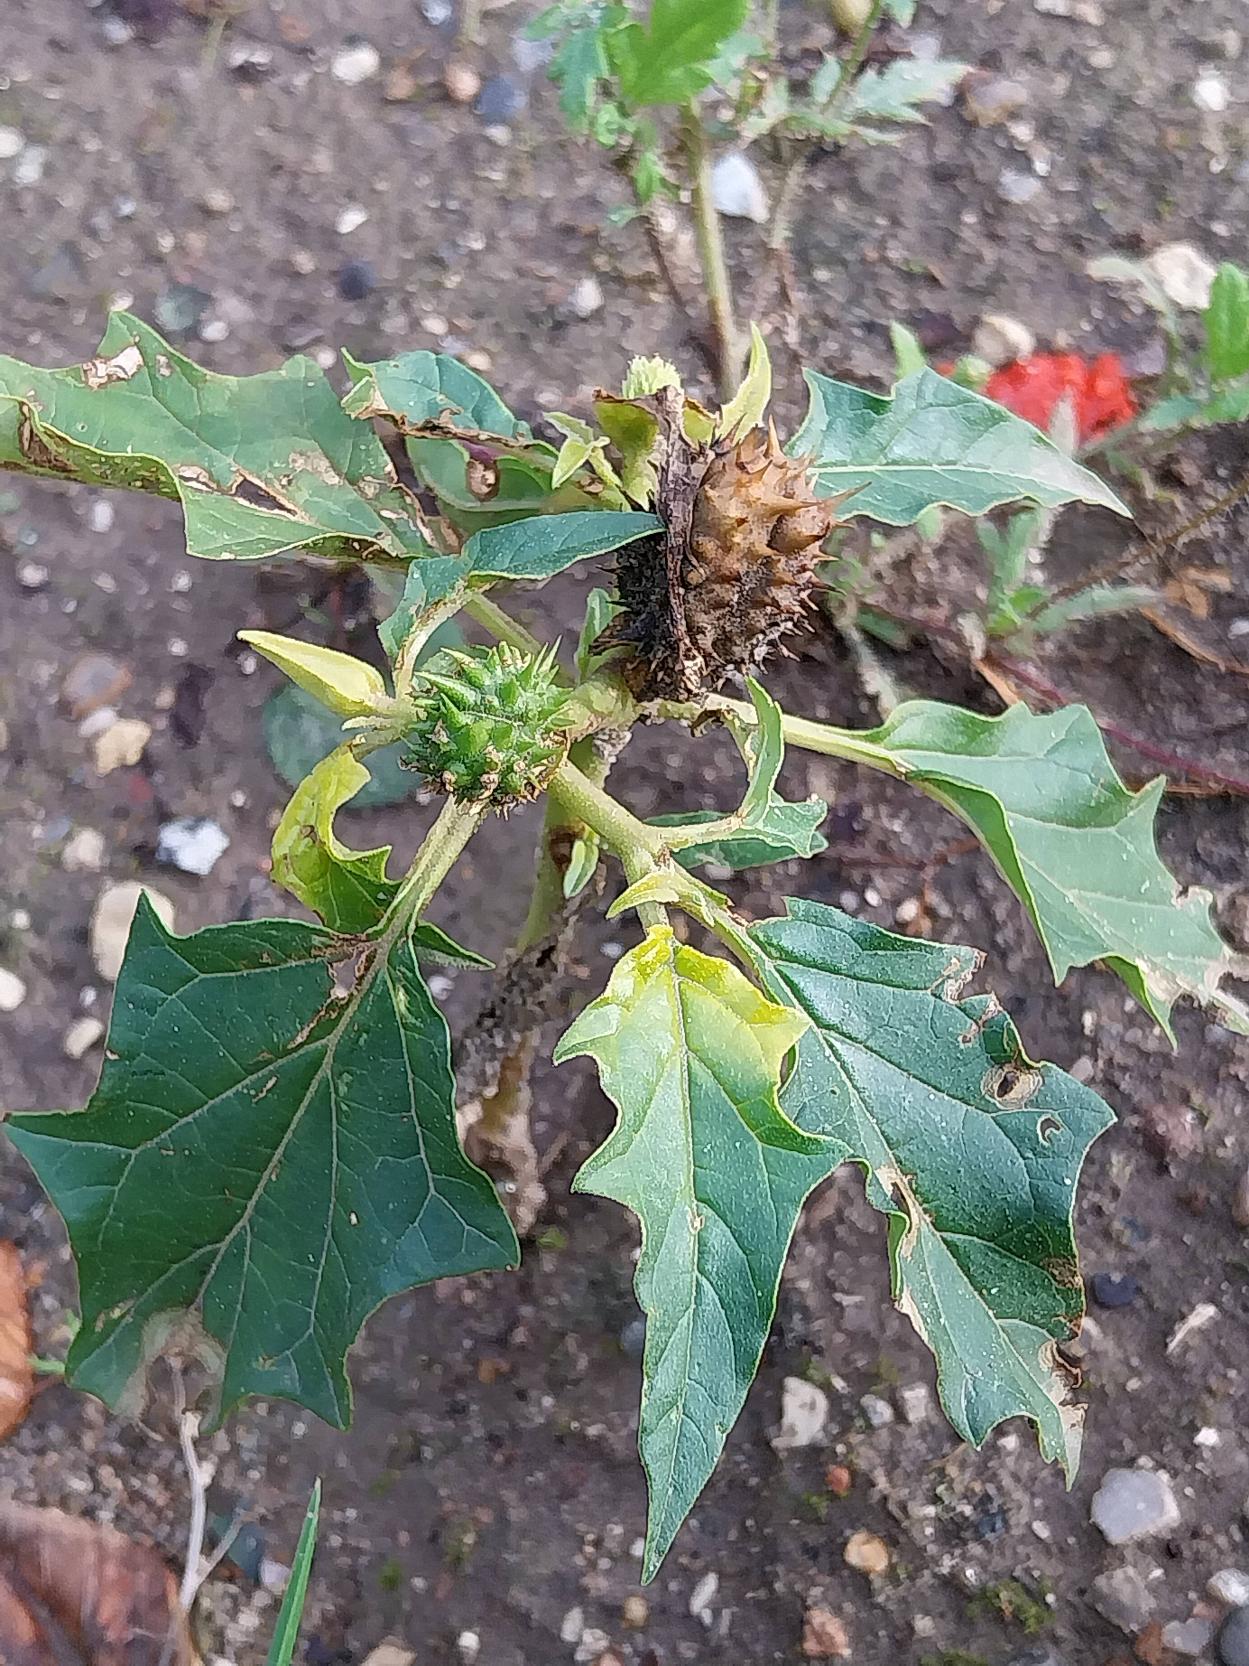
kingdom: Plantae
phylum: Tracheophyta
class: Magnoliopsida
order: Solanales
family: Solanaceae
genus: Datura
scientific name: Datura stramonium
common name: Pigæble
